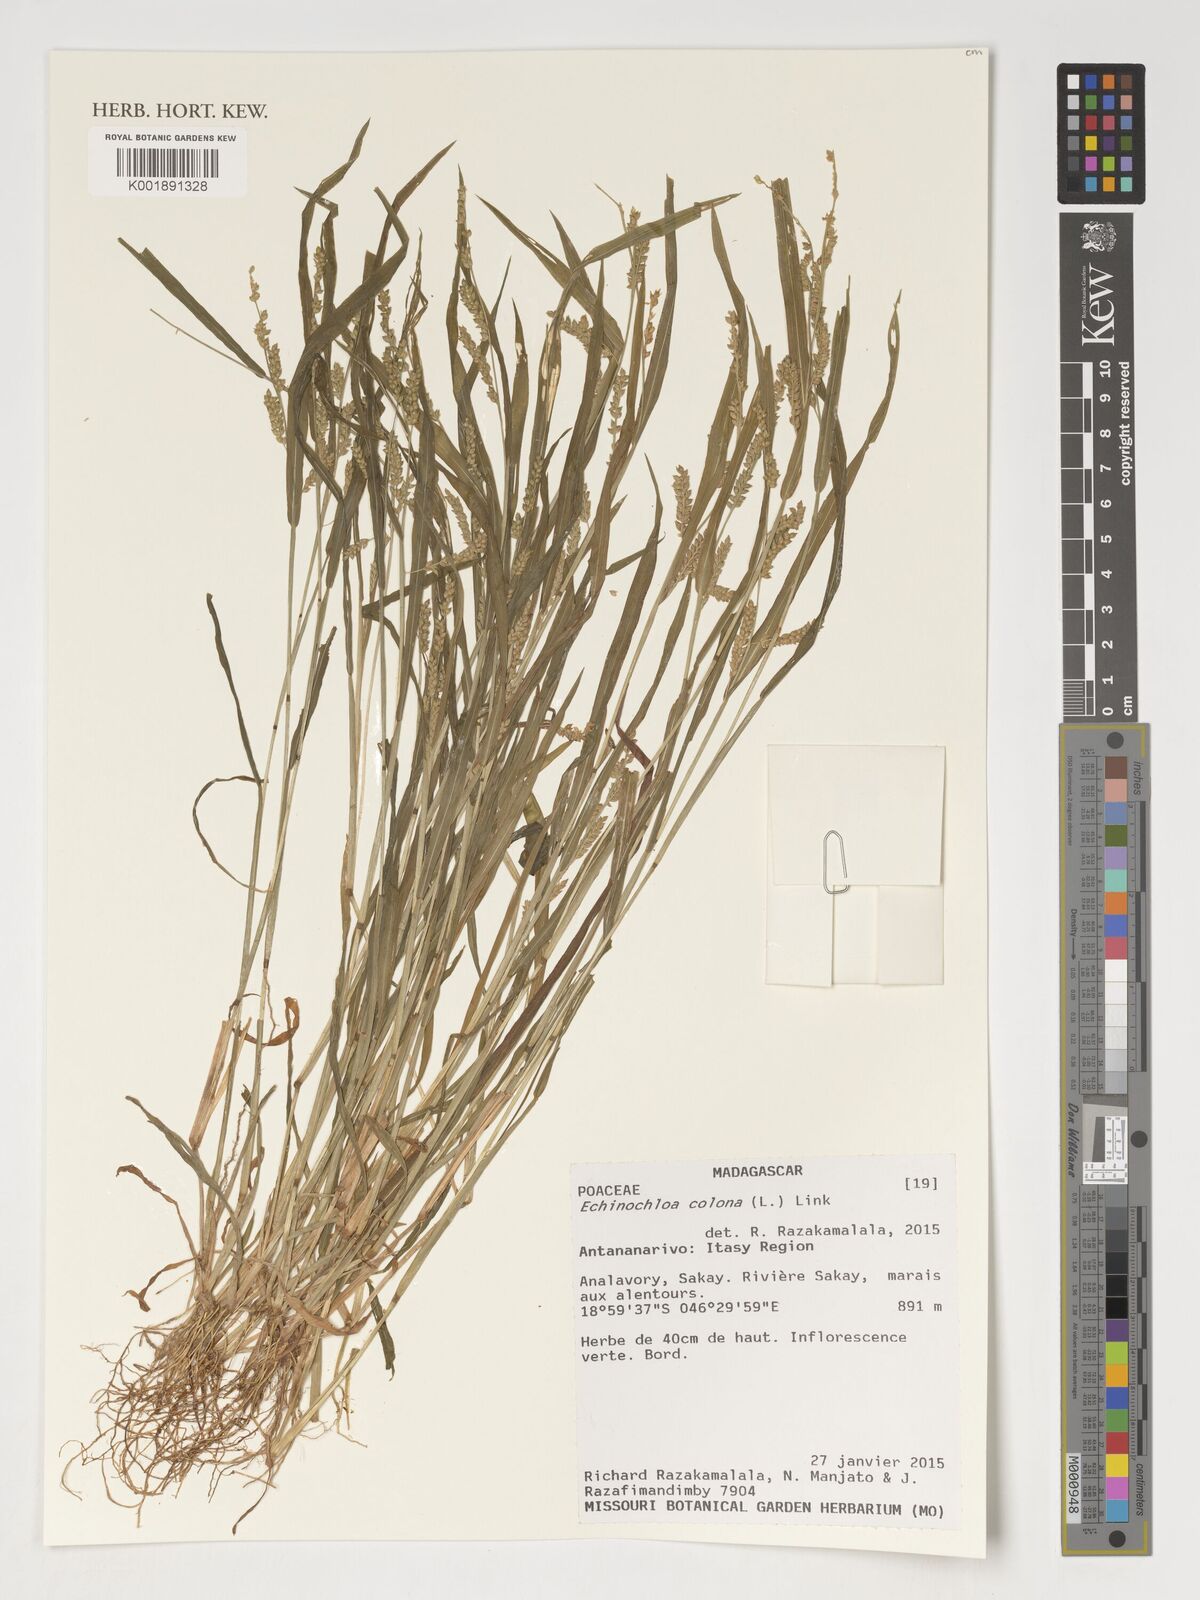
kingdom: Plantae
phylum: Tracheophyta
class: Liliopsida
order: Poales
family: Poaceae
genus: Echinochloa
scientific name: Echinochloa colonum
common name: Jungle rice
